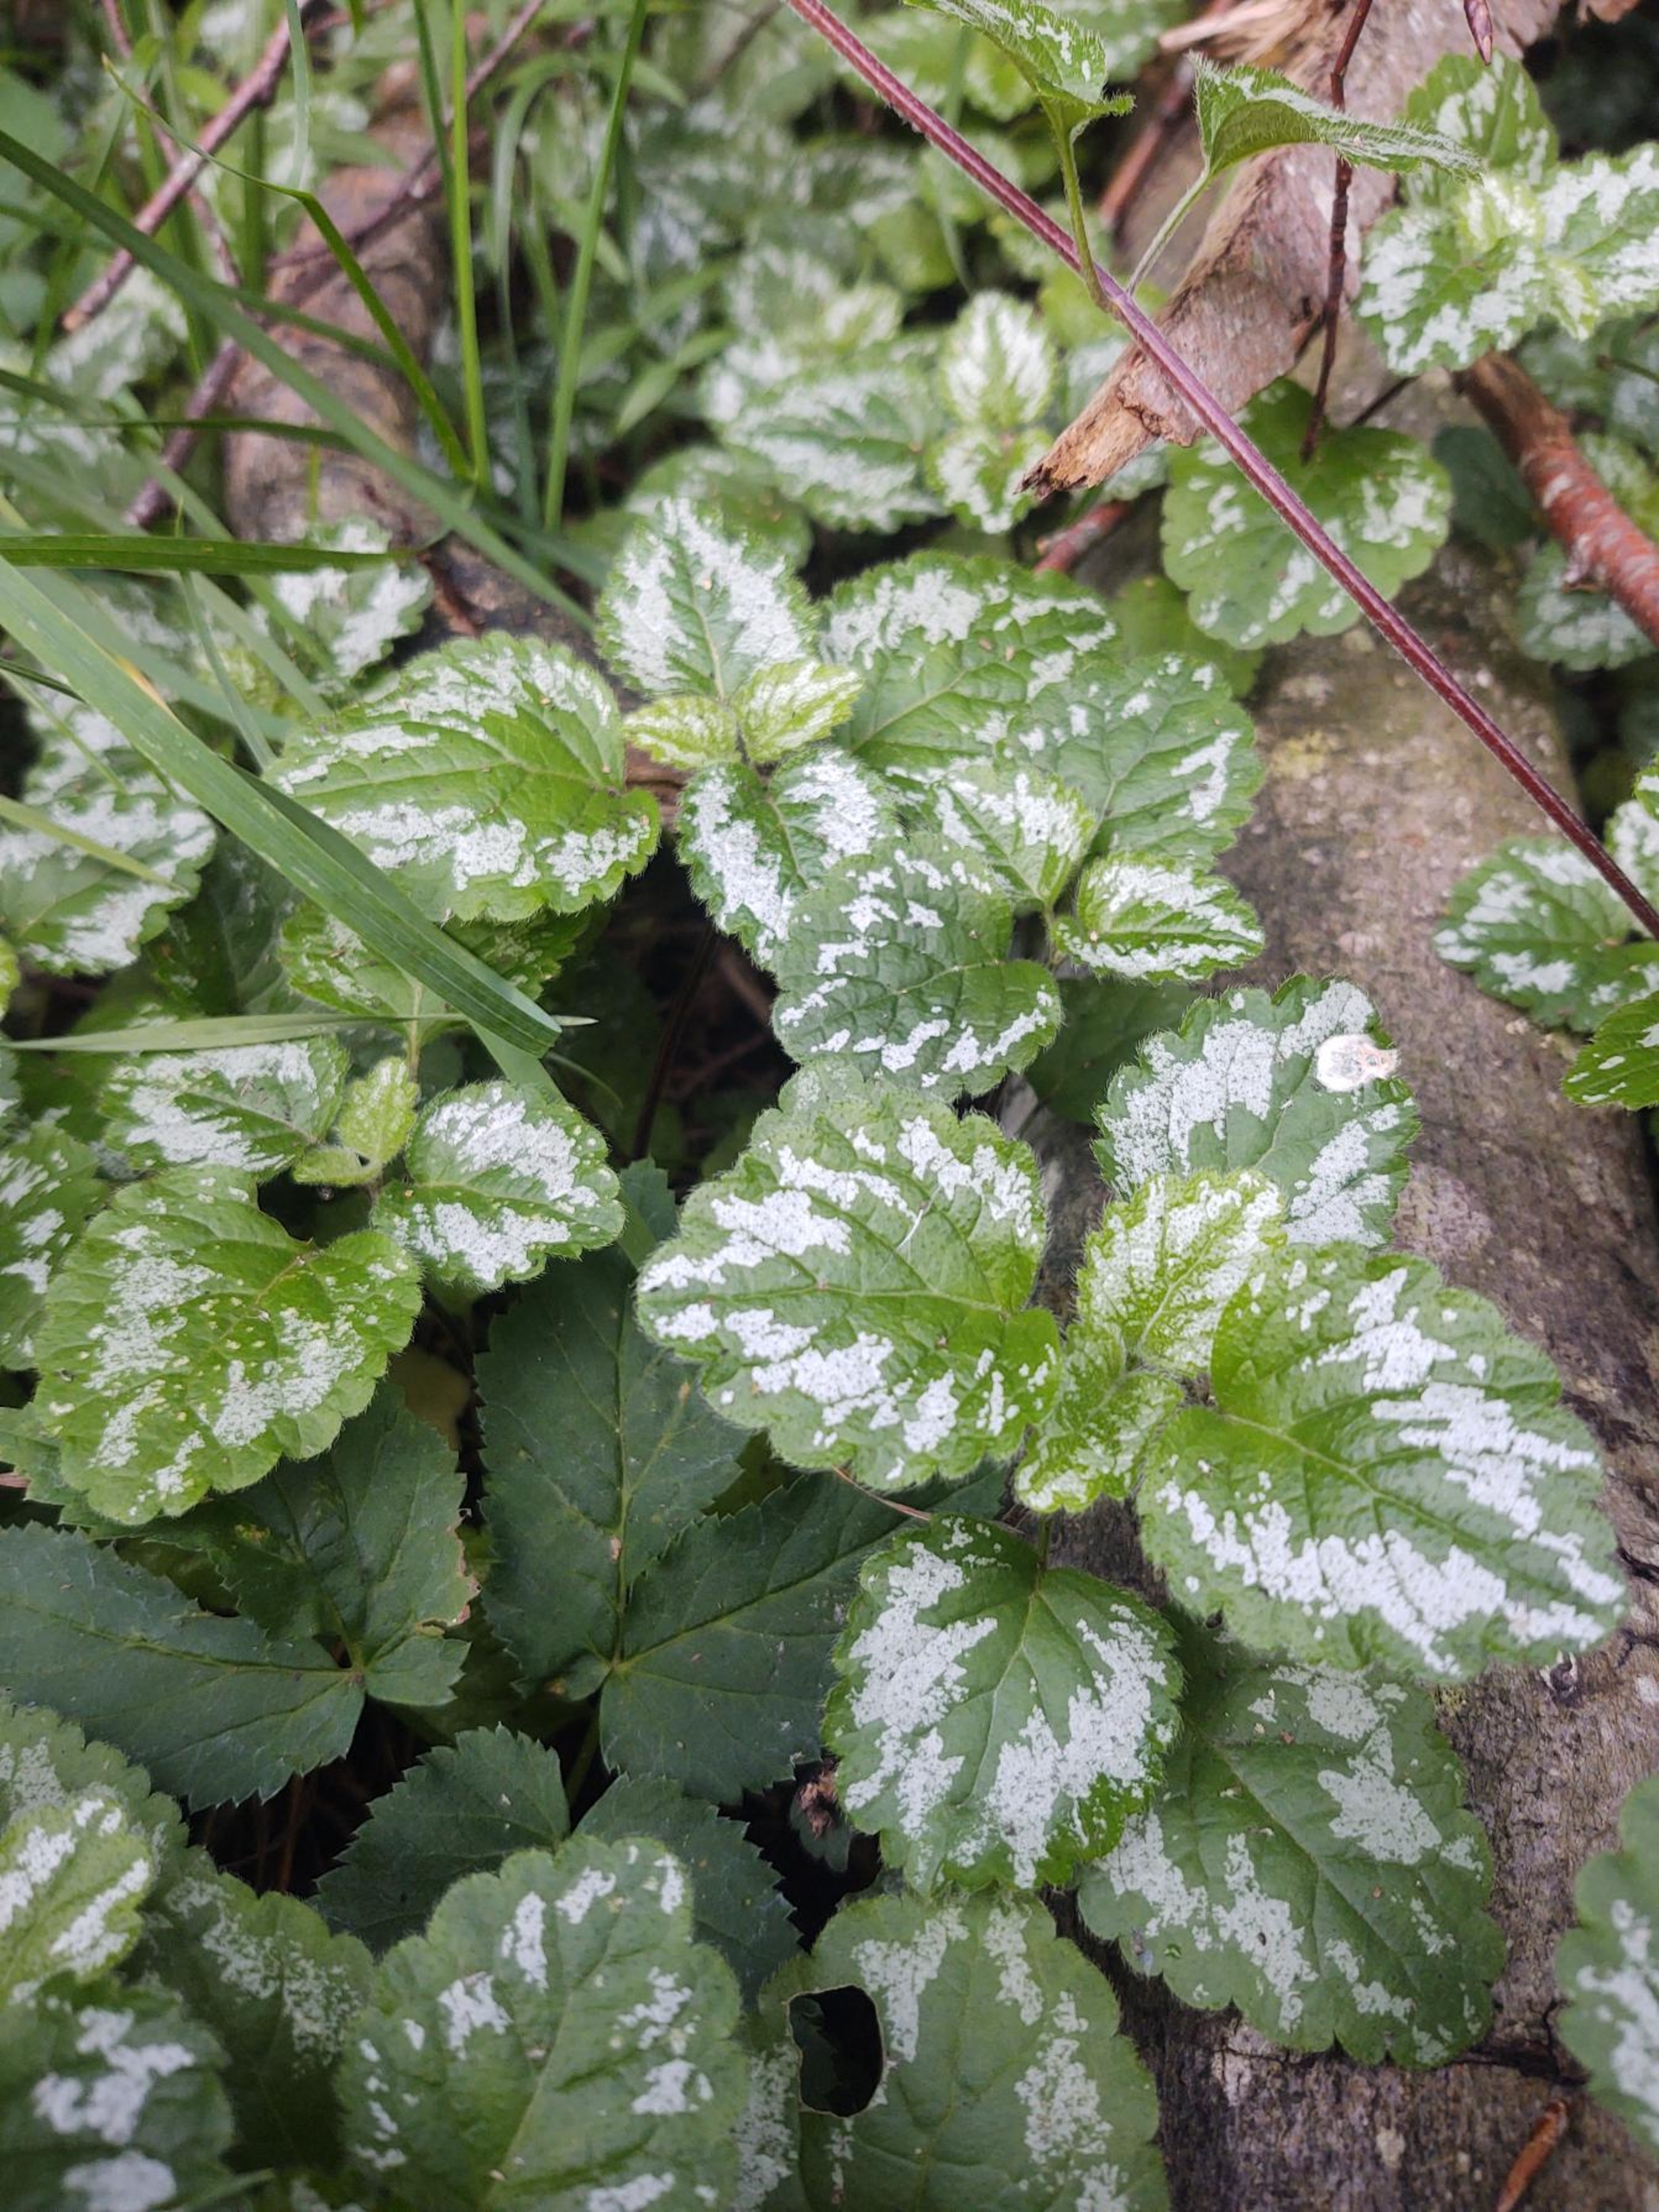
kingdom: Plantae
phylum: Tracheophyta
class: Magnoliopsida
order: Lamiales
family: Lamiaceae
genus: Lamium
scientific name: Lamium galeobdolon
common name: Have-guldnælde
